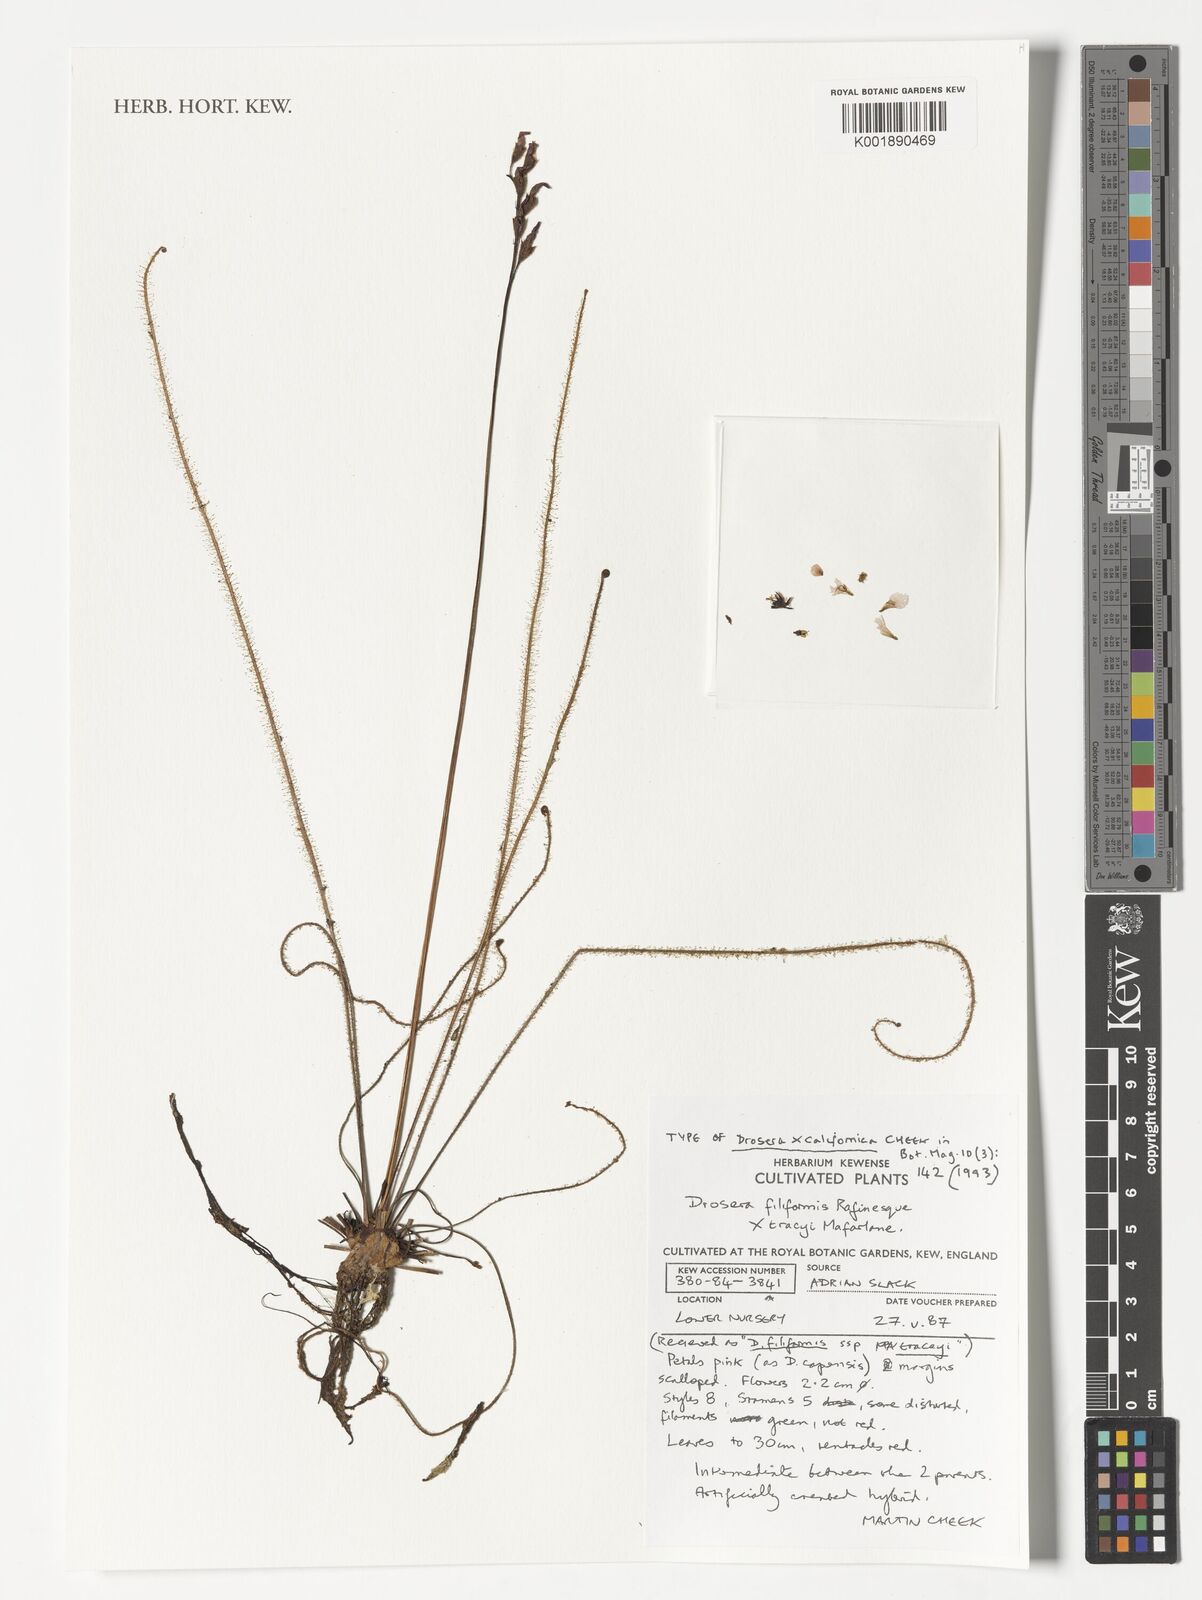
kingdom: Plantae
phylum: Tracheophyta
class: Magnoliopsida
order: Caryophyllales
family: Droseraceae
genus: Drosera
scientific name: Drosera californica
